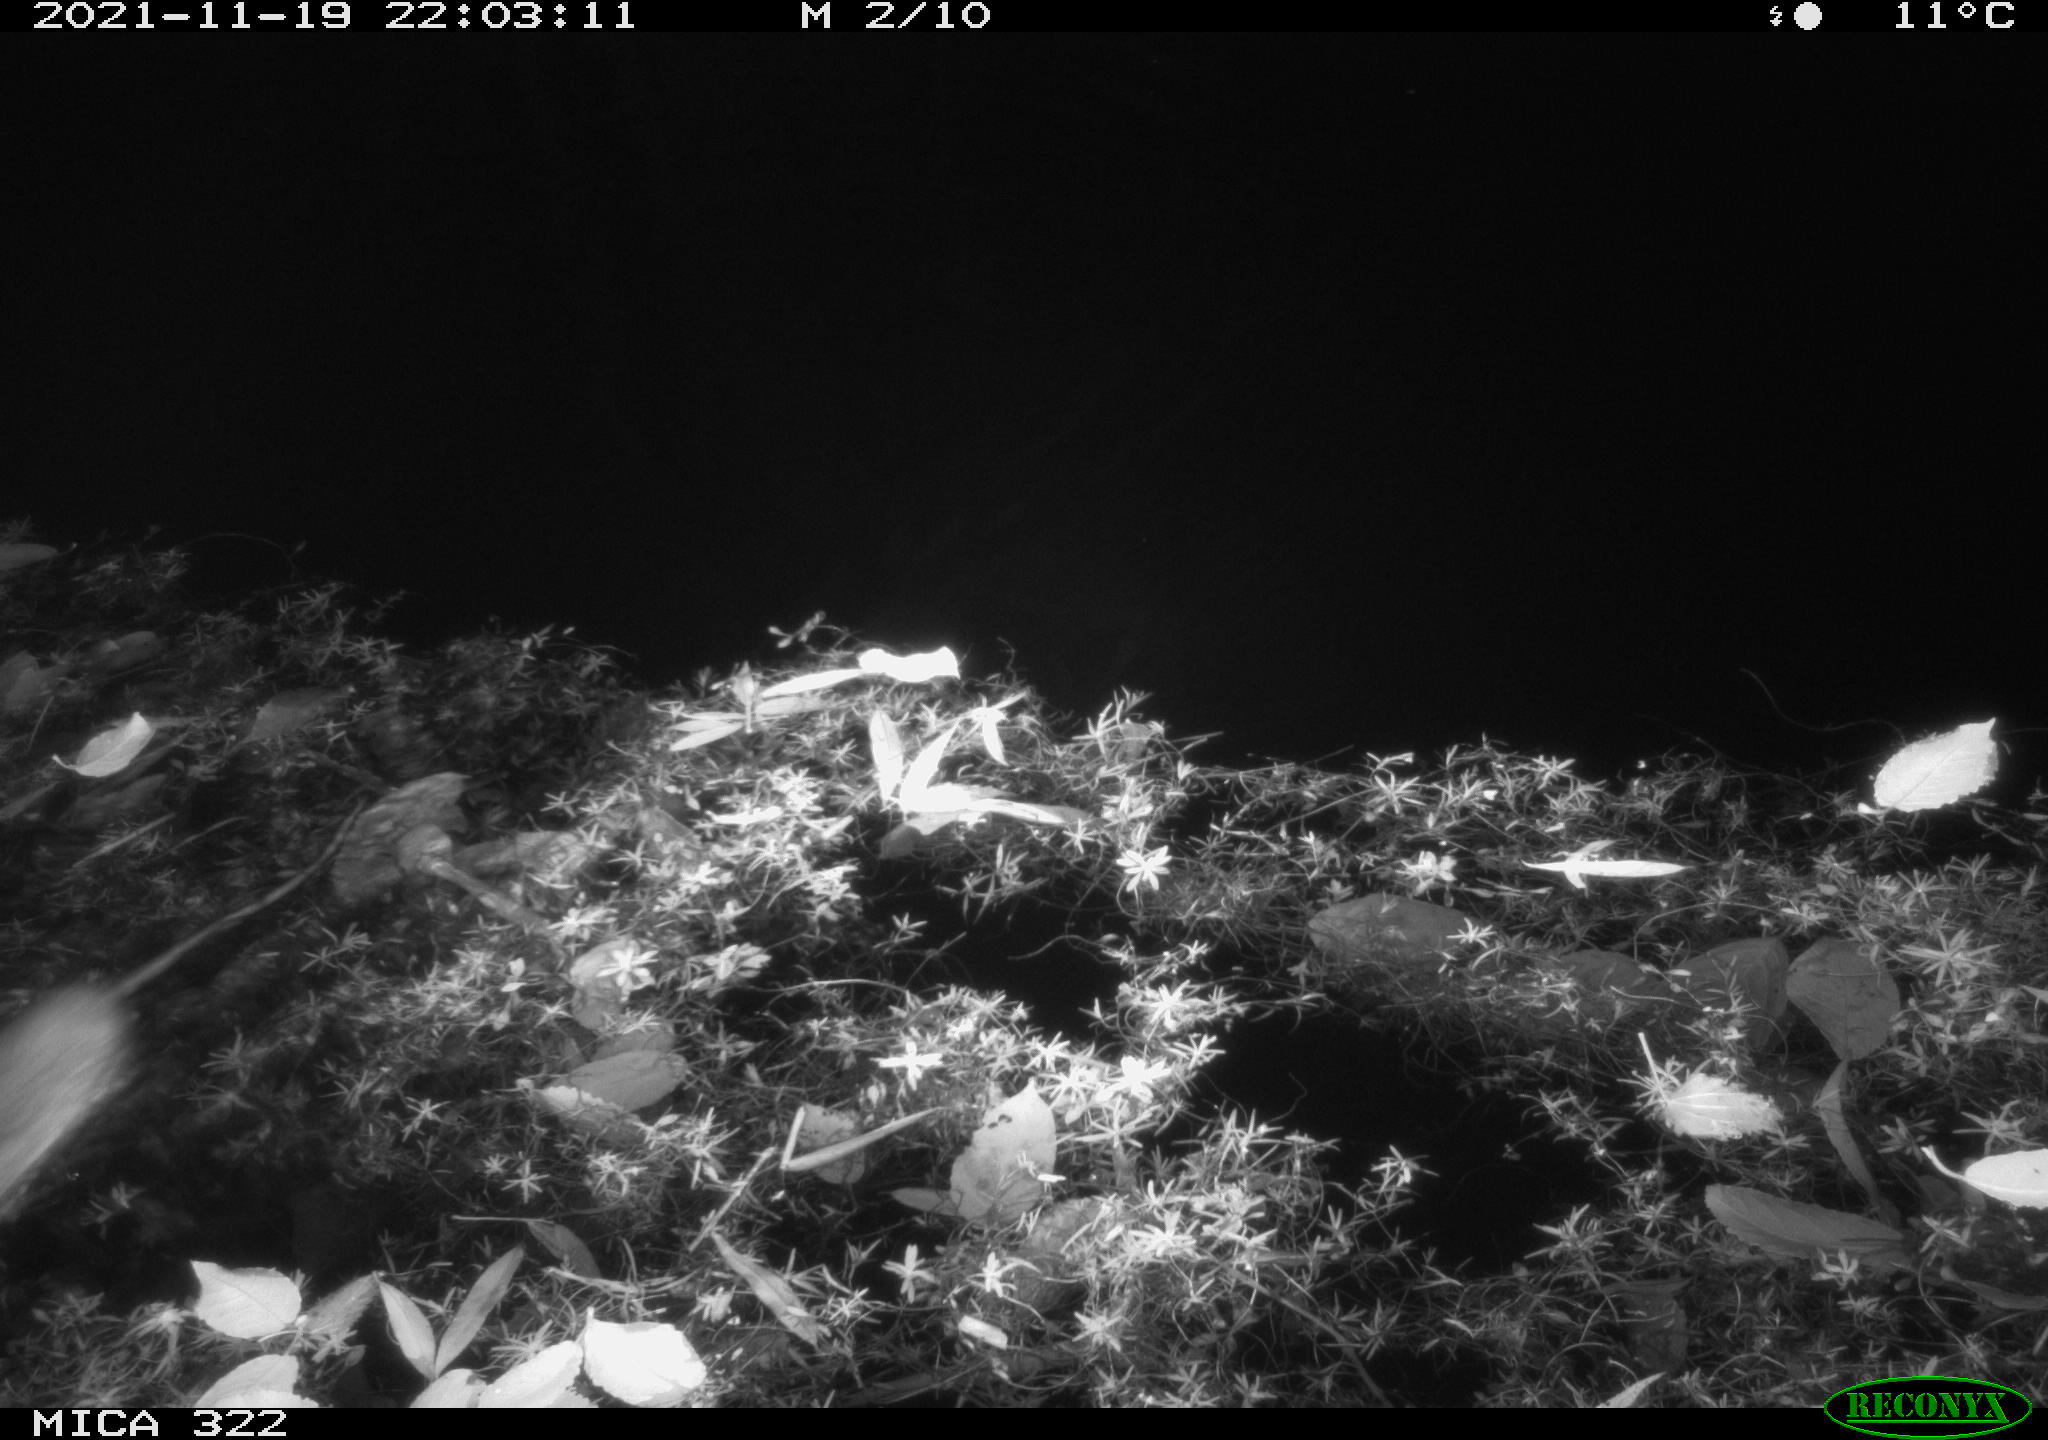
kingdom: Animalia
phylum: Chordata
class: Mammalia
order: Rodentia
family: Muridae
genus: Rattus
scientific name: Rattus norvegicus
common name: Brown rat
